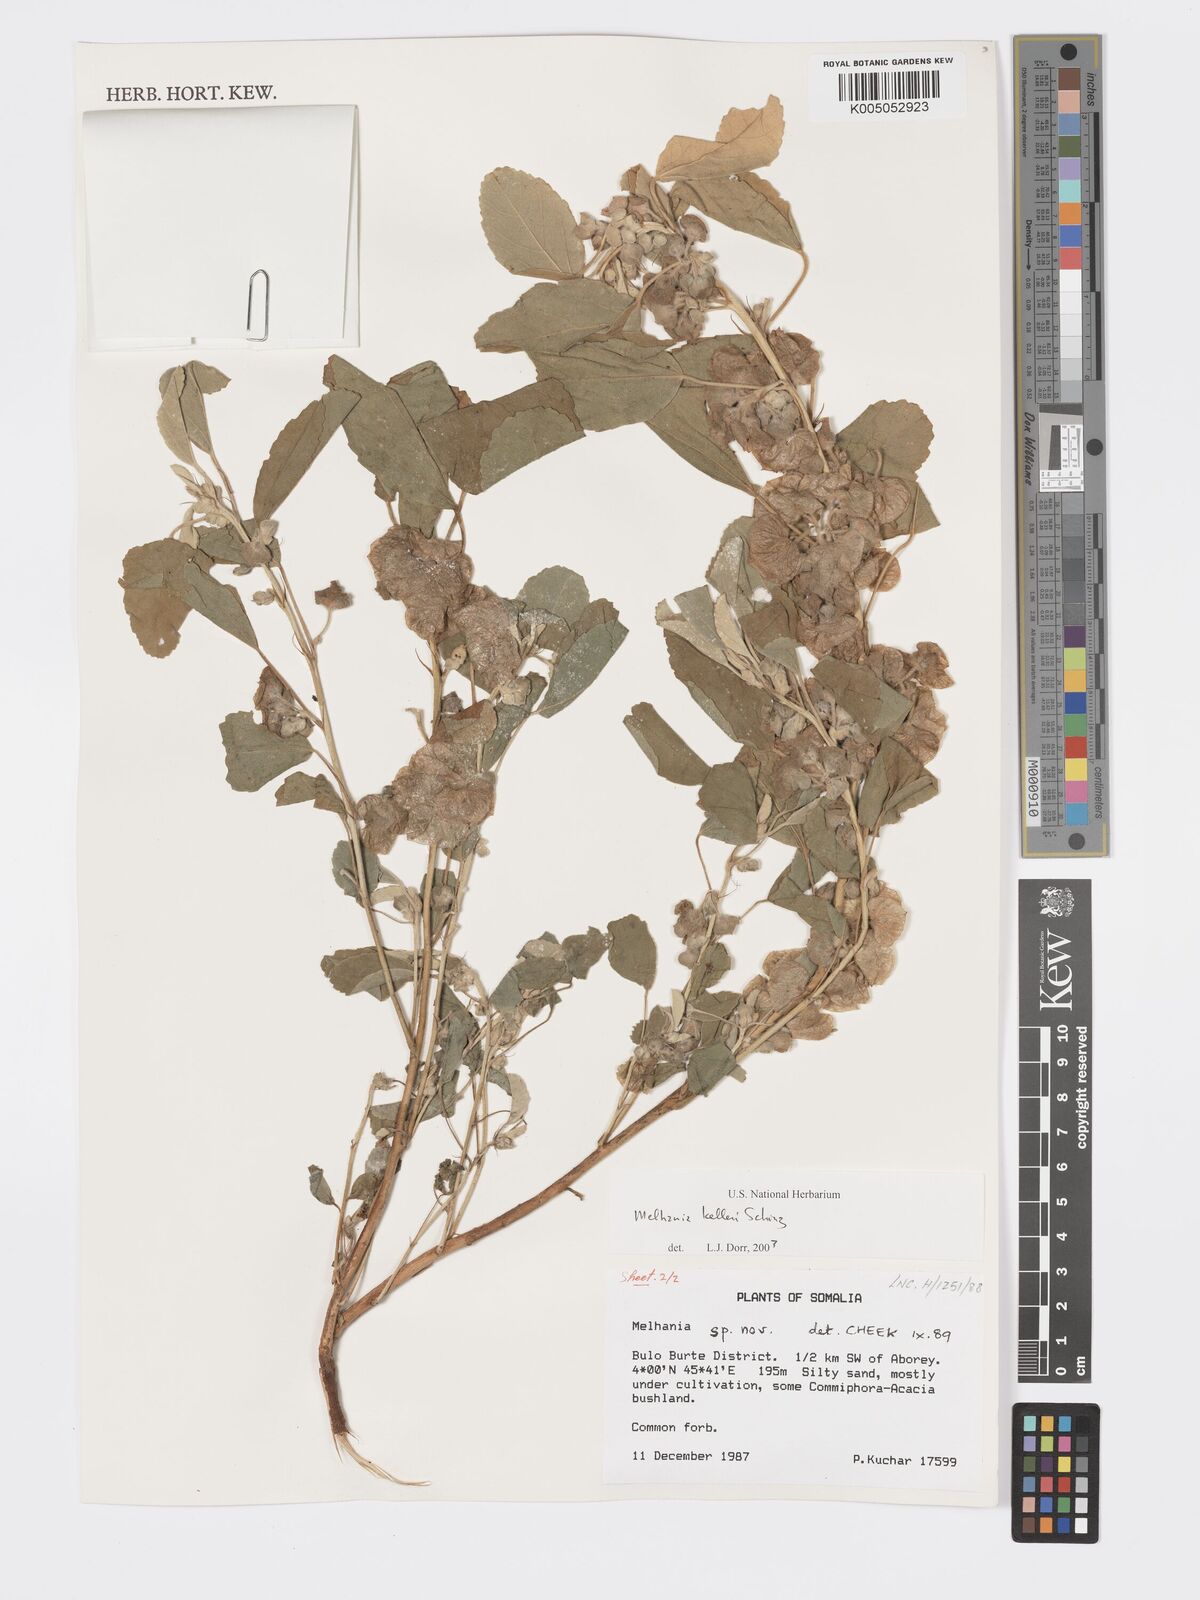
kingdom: Plantae
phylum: Tracheophyta
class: Magnoliopsida
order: Malvales
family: Malvaceae
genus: Melhania
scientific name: Melhania kelleri
